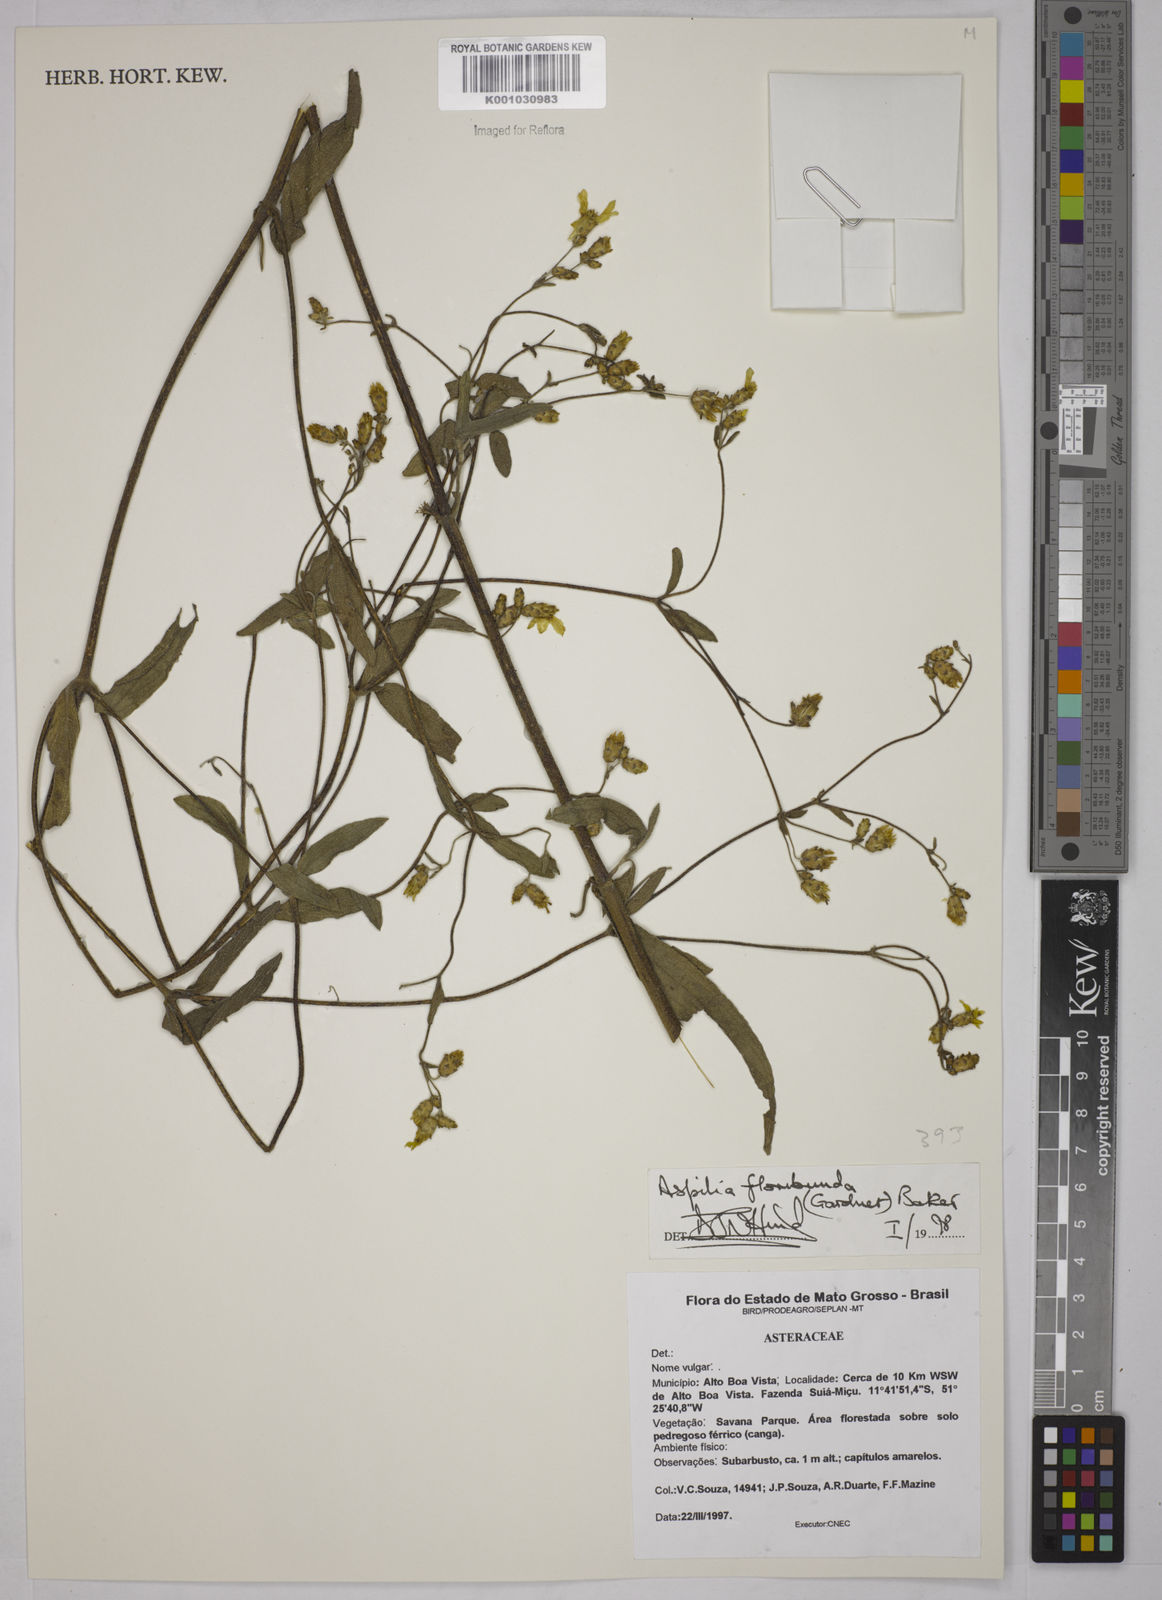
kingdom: Plantae
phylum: Tracheophyta
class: Magnoliopsida
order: Asterales
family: Asteraceae
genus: Wedelia
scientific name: Wedelia floribunda
